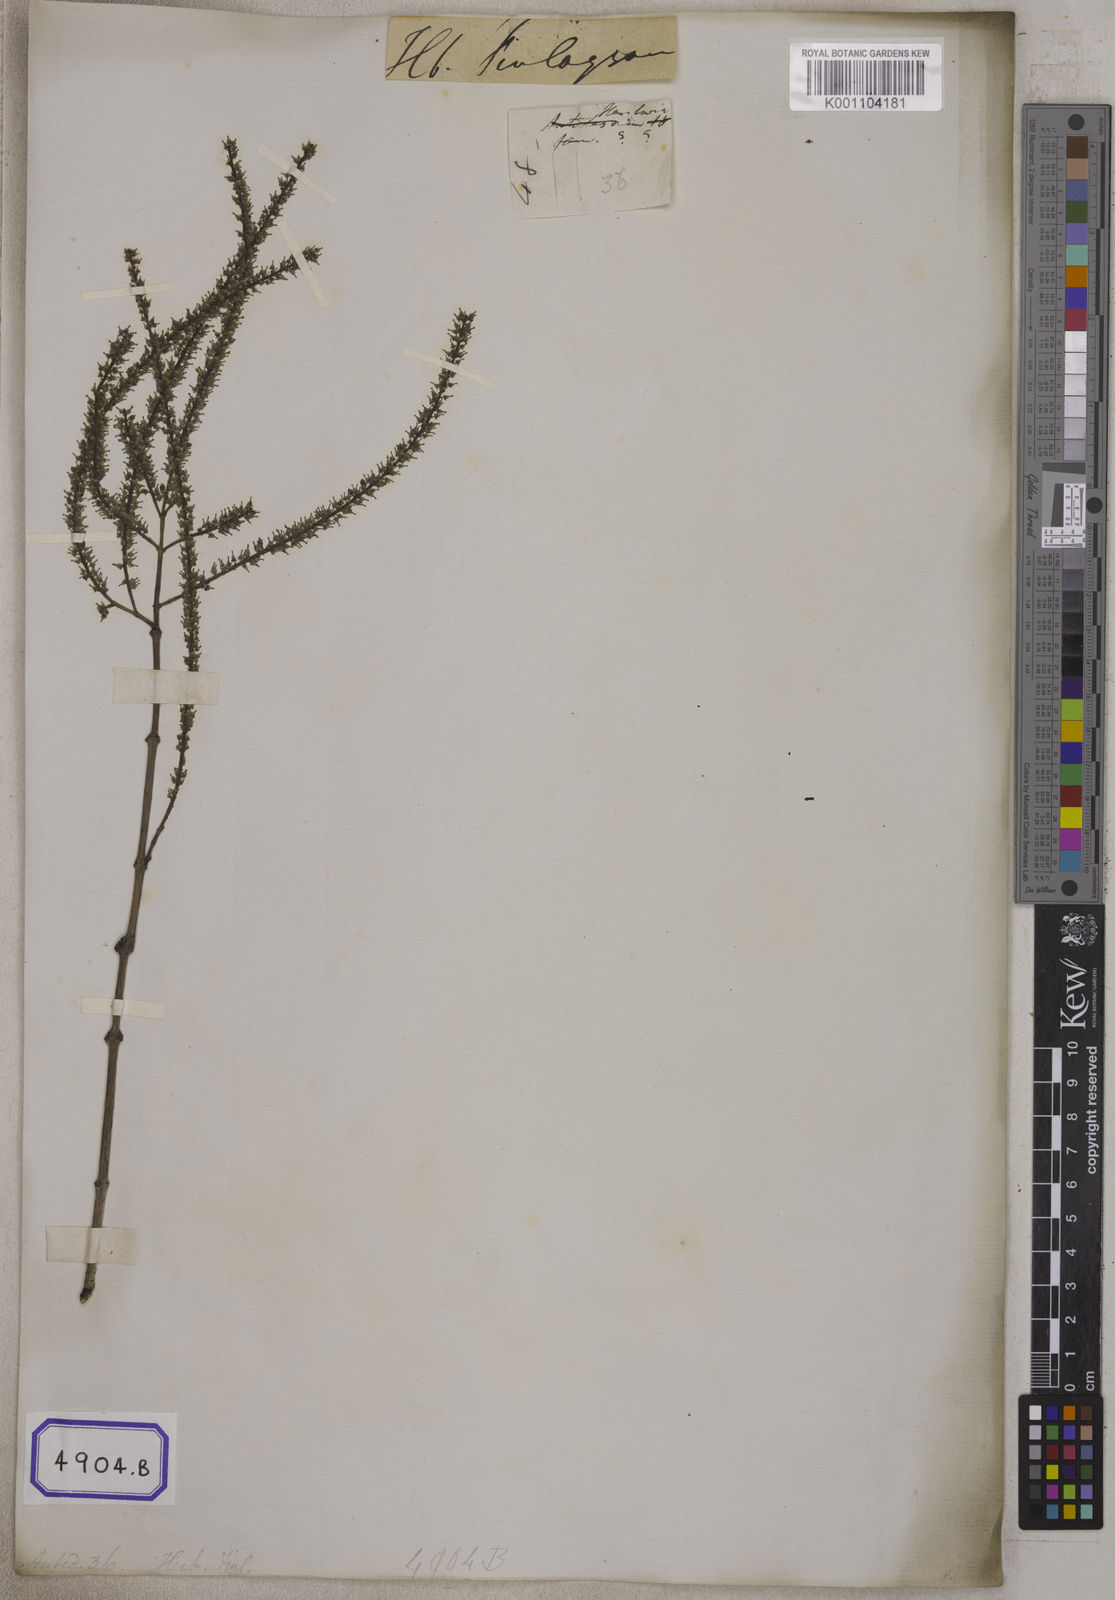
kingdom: Plantae
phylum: Tracheophyta
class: Magnoliopsida
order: Myrtales
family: Crypteroniaceae
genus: Crypteronia
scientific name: Crypteronia paniculata
